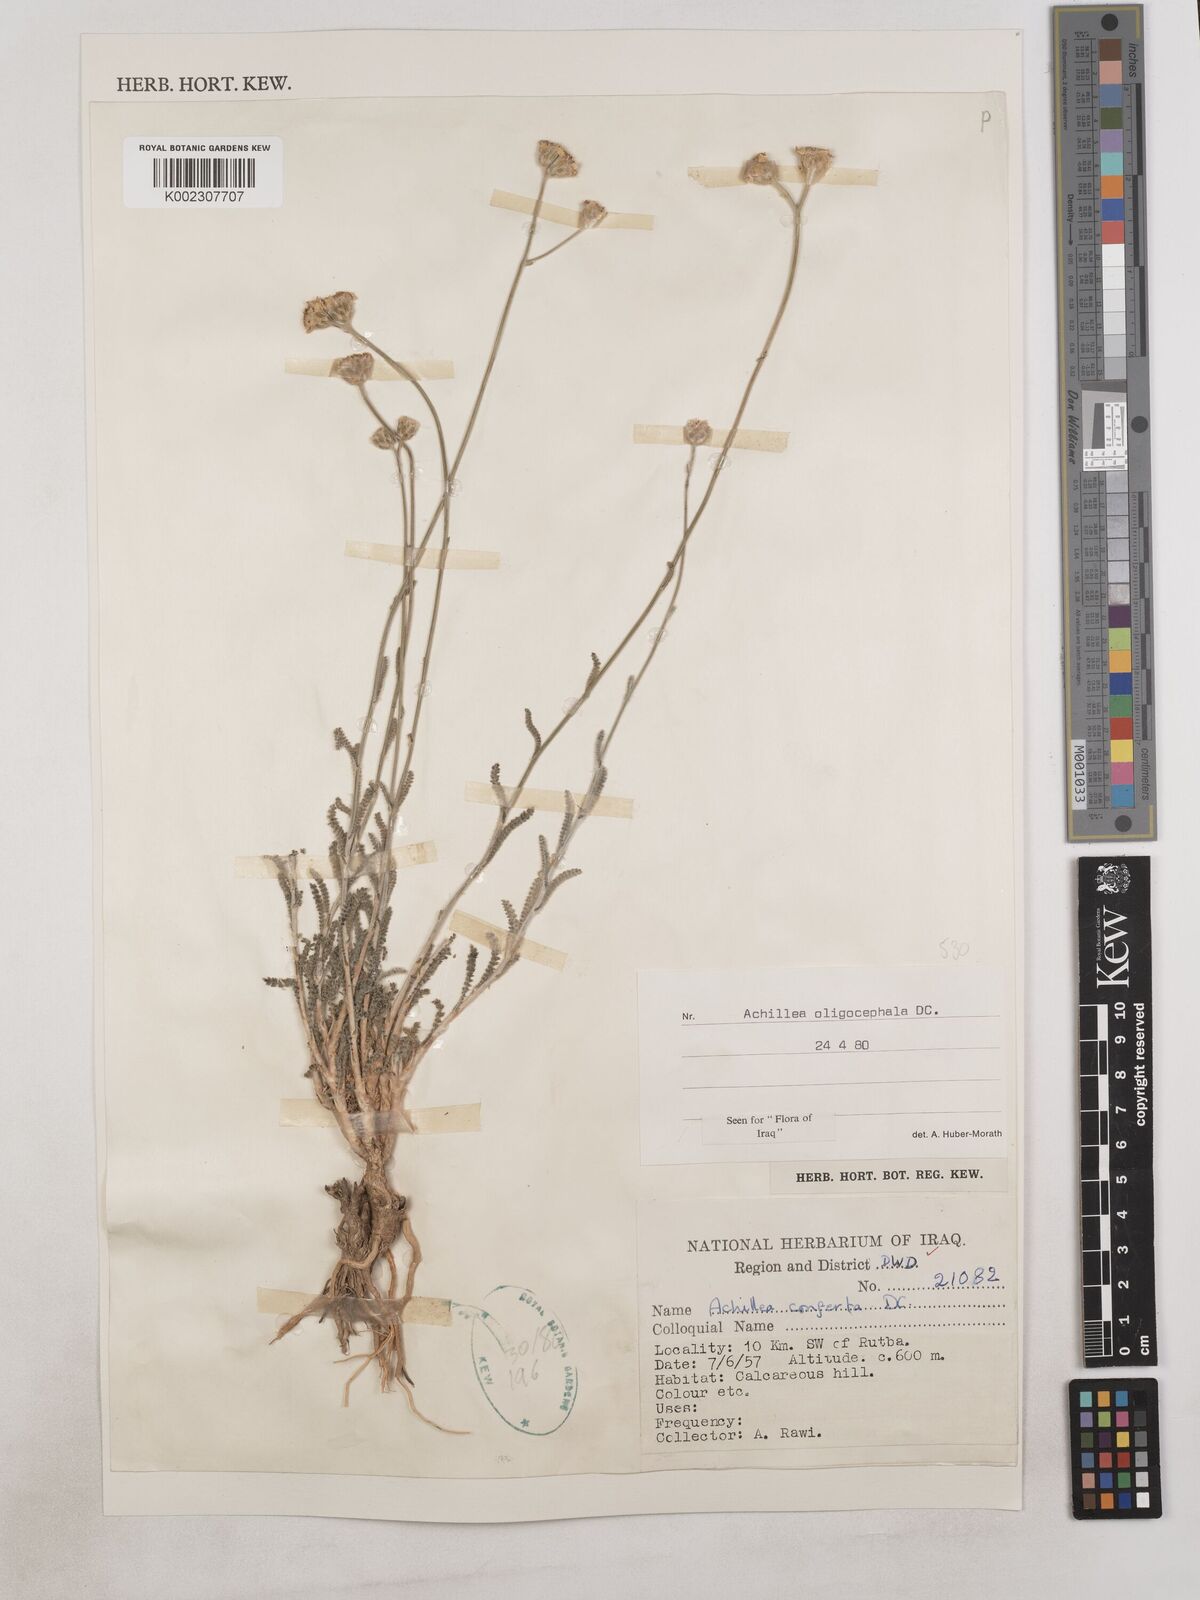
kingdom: Plantae
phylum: Tracheophyta
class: Magnoliopsida
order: Asterales
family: Asteraceae
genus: Achillea
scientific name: Achillea oligocephala
